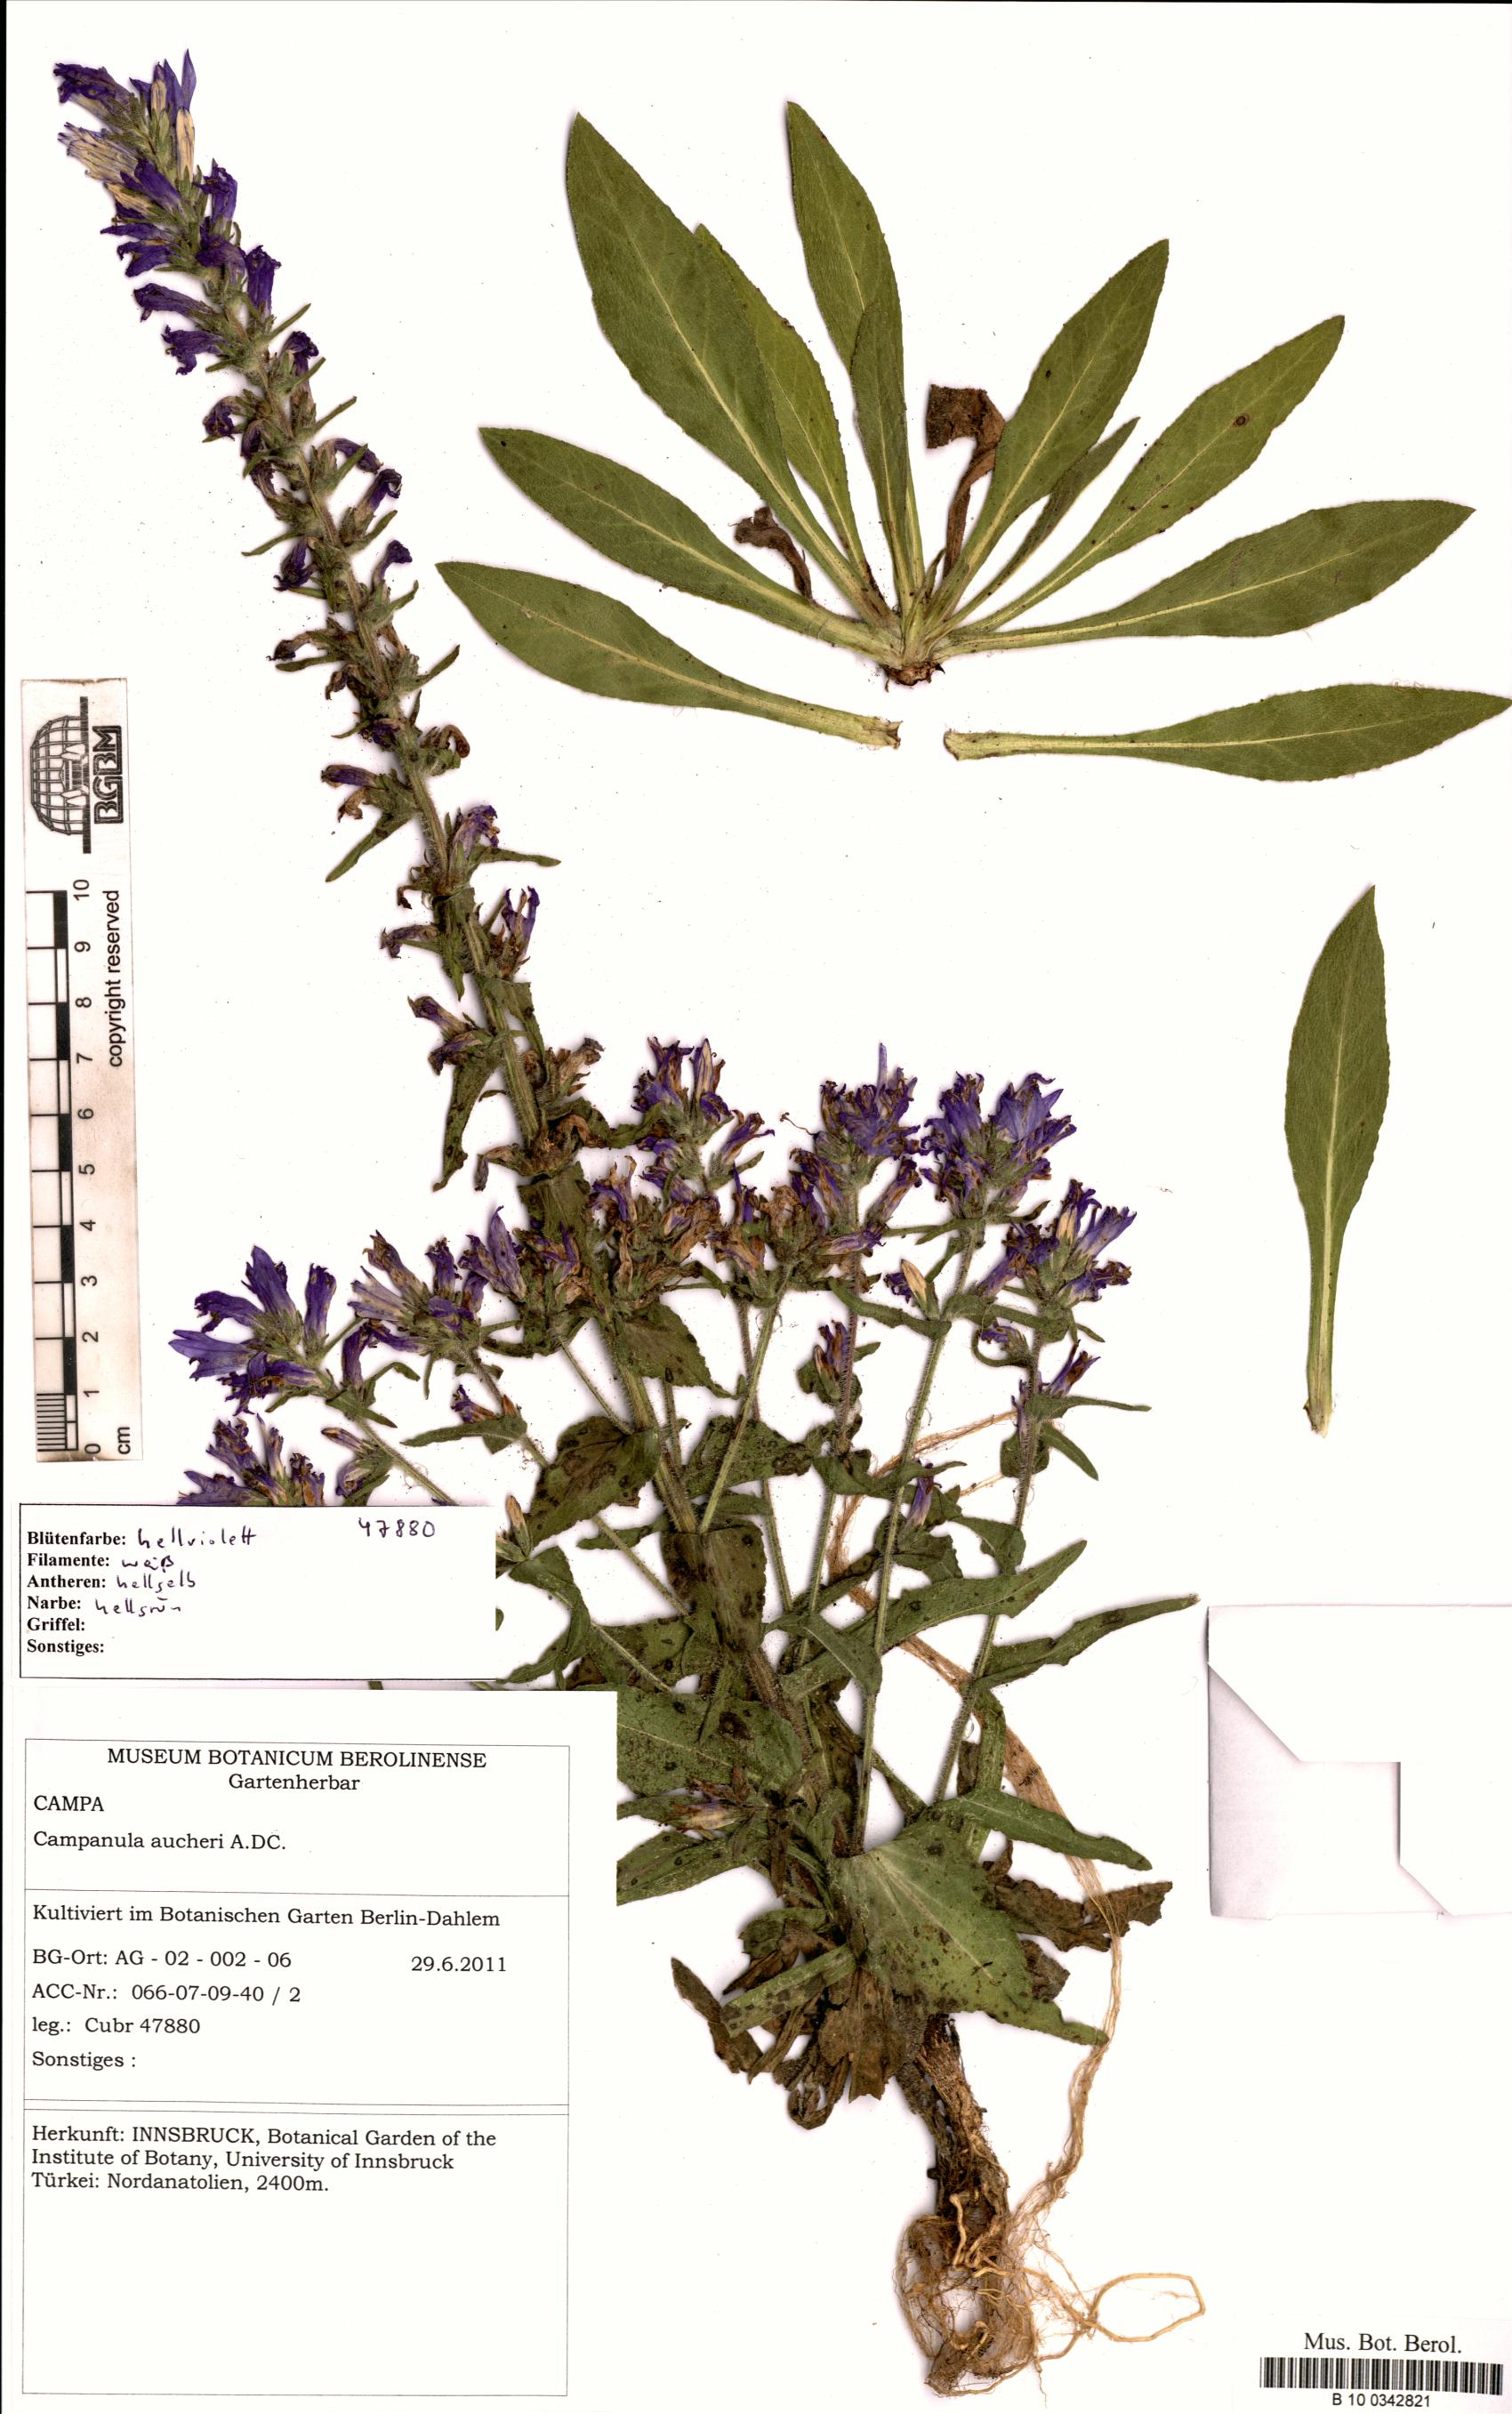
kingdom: Plantae
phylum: Tracheophyta
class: Magnoliopsida
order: Asterales
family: Campanulaceae
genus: Campanula
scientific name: Campanula saxifraga
